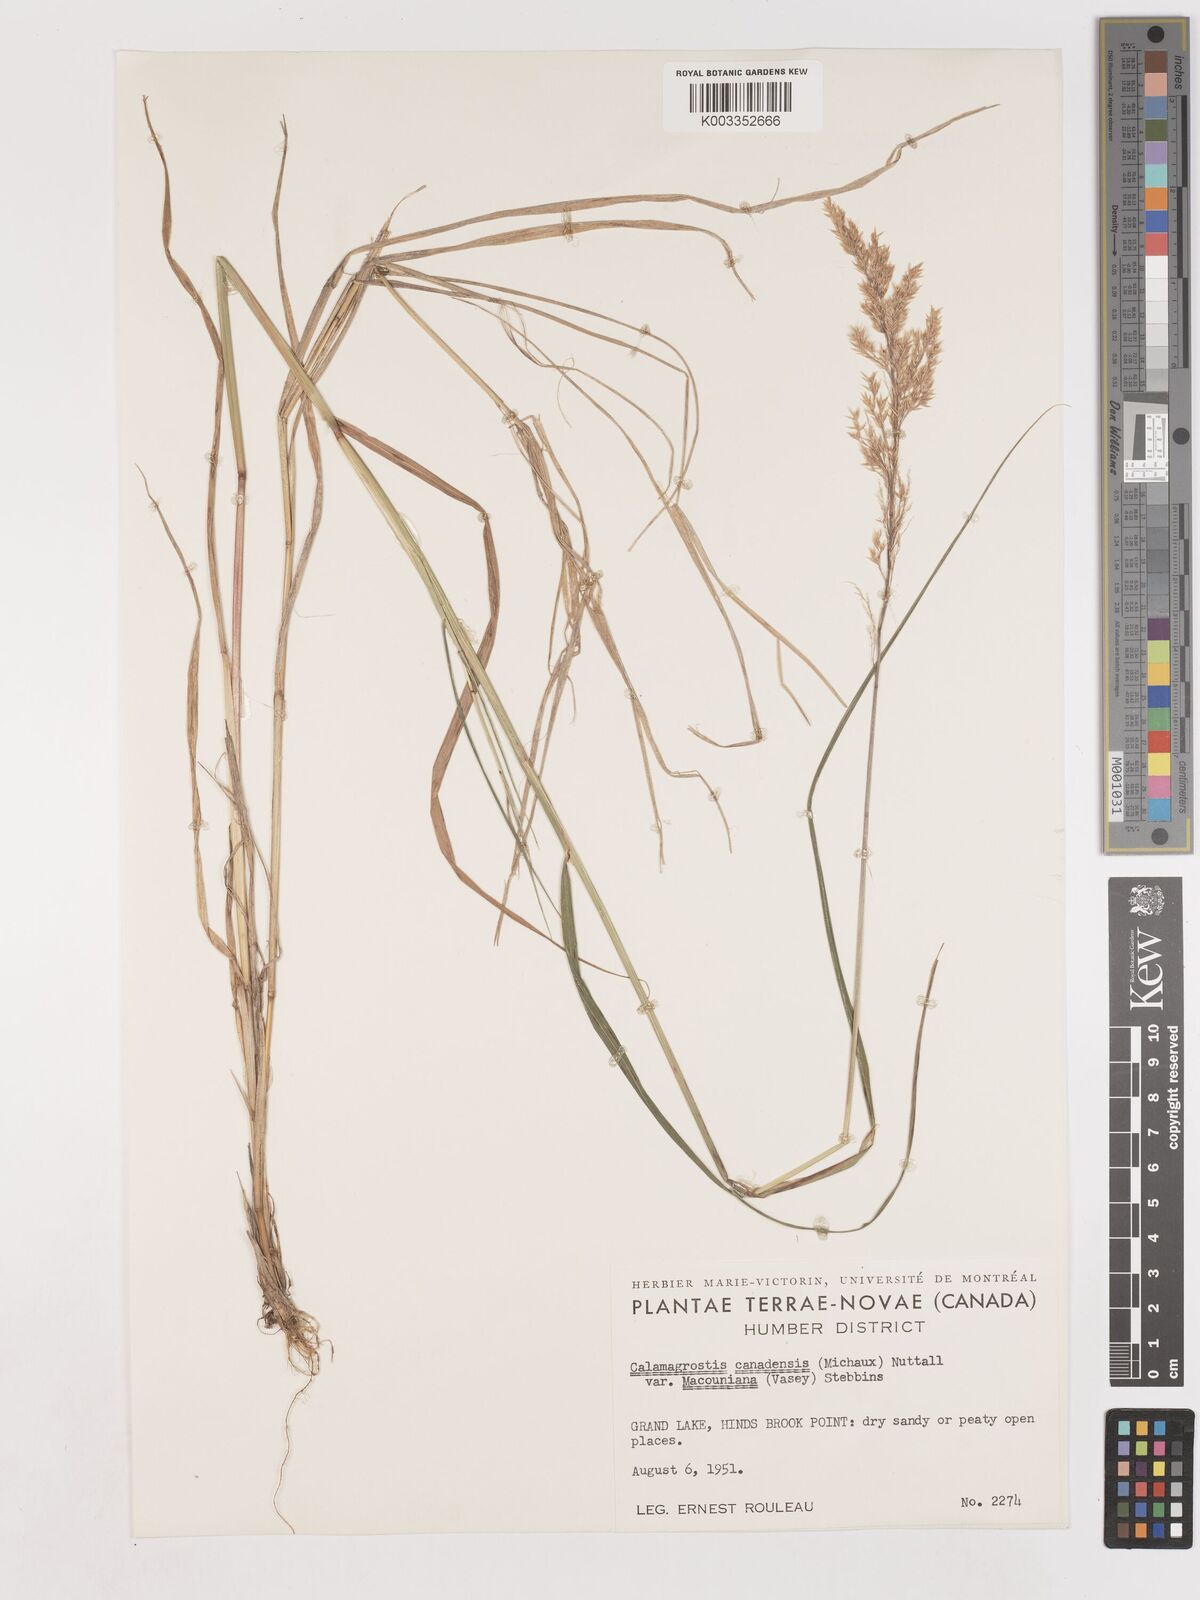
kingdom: Plantae
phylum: Tracheophyta
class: Liliopsida
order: Poales
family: Poaceae
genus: Calamagrostis
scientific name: Calamagrostis canadensis
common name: Canada bluejoint
